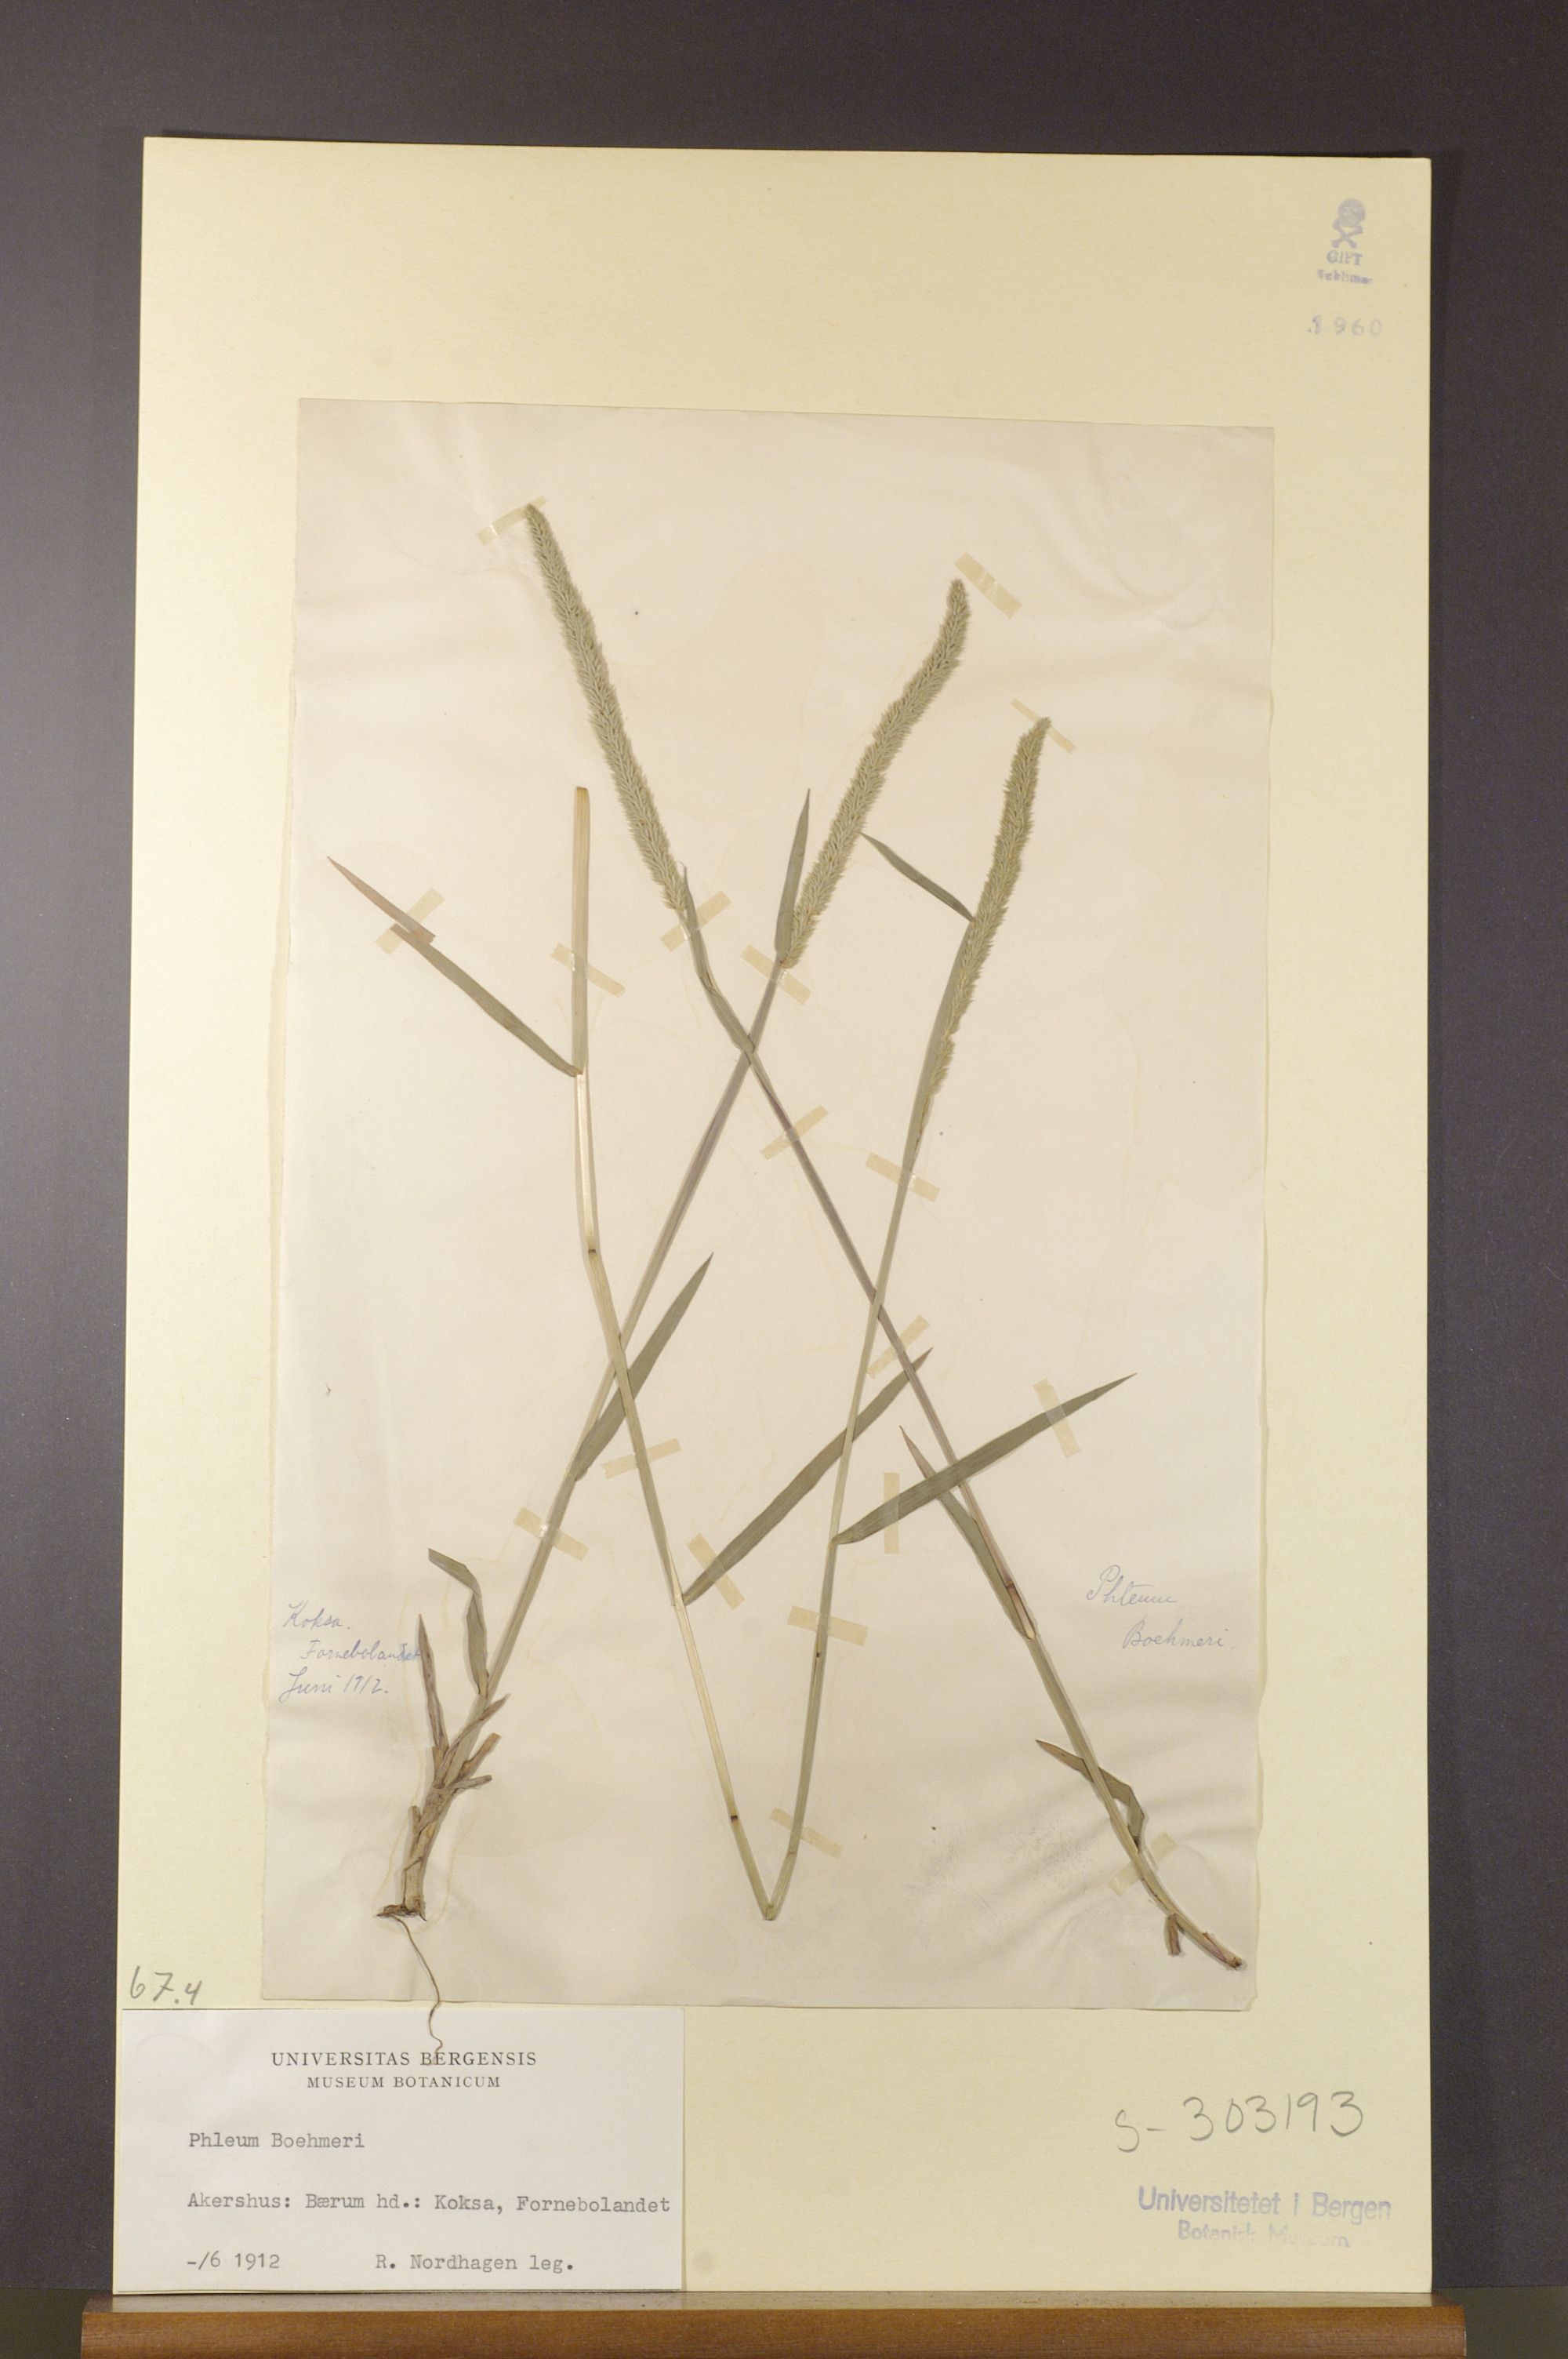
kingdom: Plantae
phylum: Tracheophyta
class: Liliopsida
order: Poales
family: Poaceae
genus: Phleum
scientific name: Phleum phleoides
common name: Purple-stem cat's-tail
